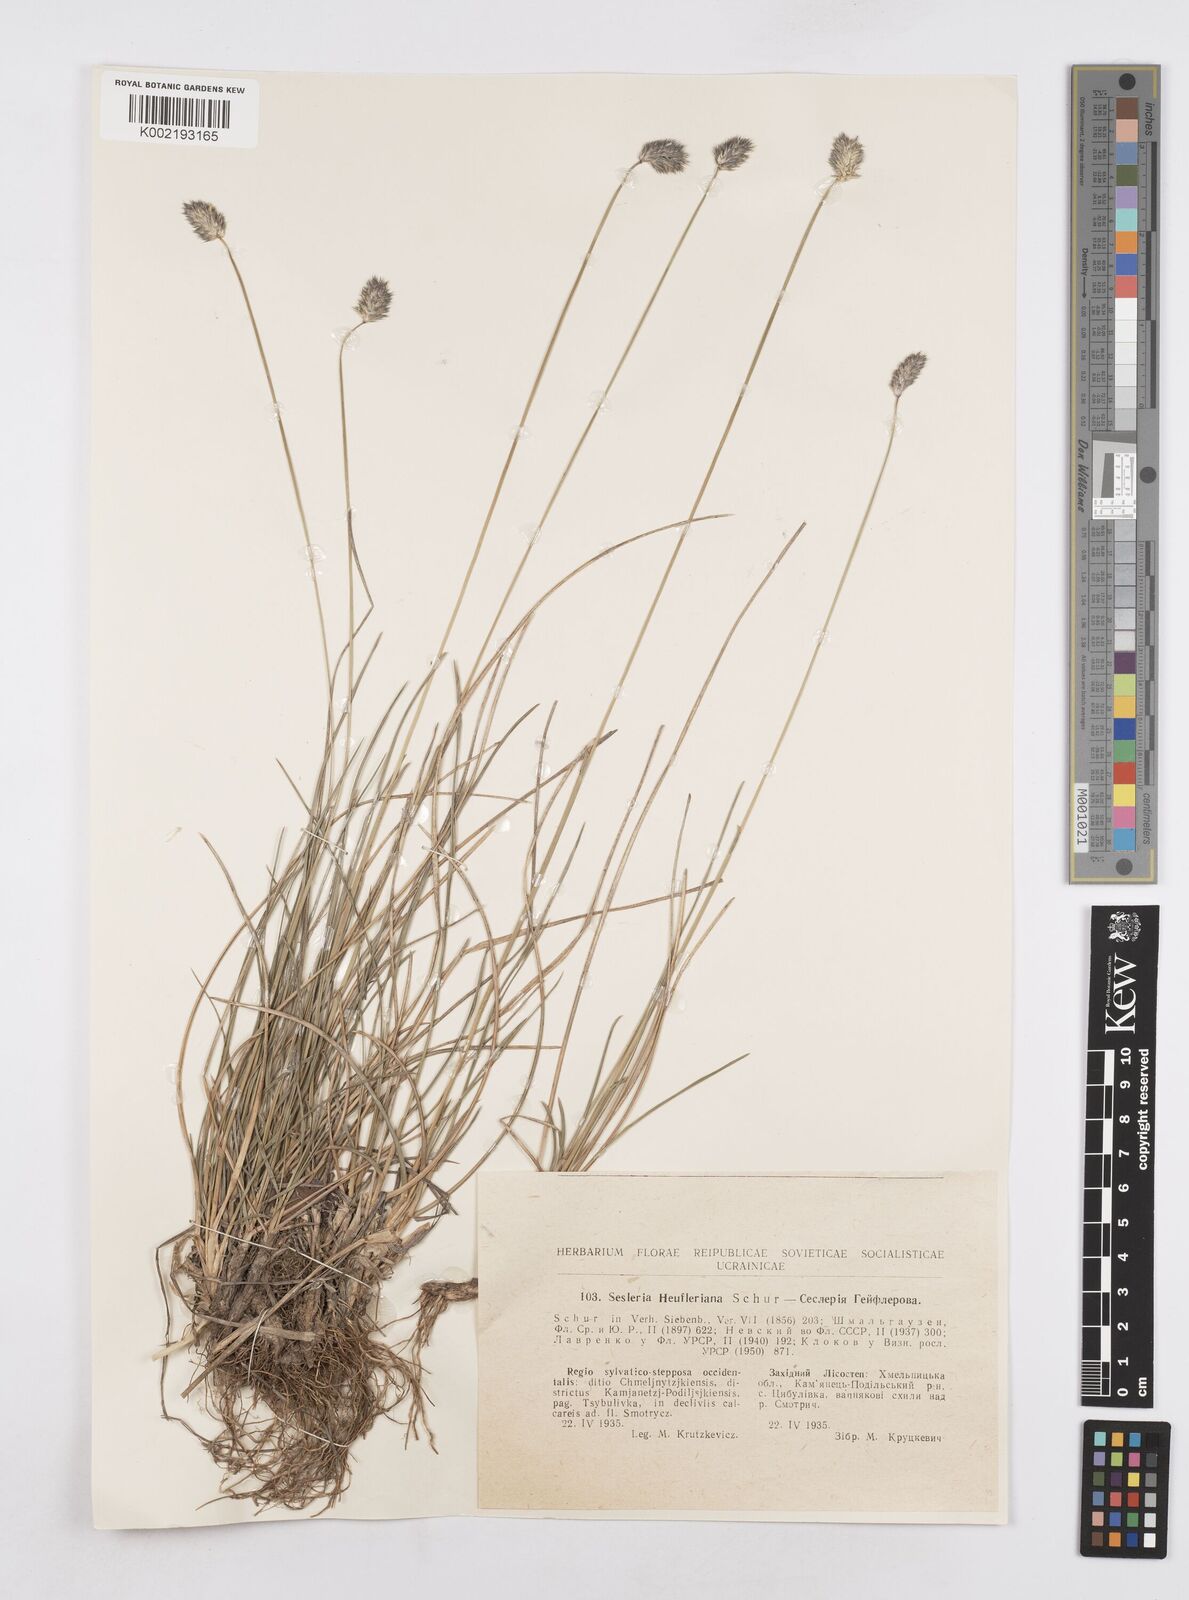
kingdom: Plantae
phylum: Tracheophyta
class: Liliopsida
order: Poales
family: Poaceae
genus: Sesleria
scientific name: Sesleria heufleriana
